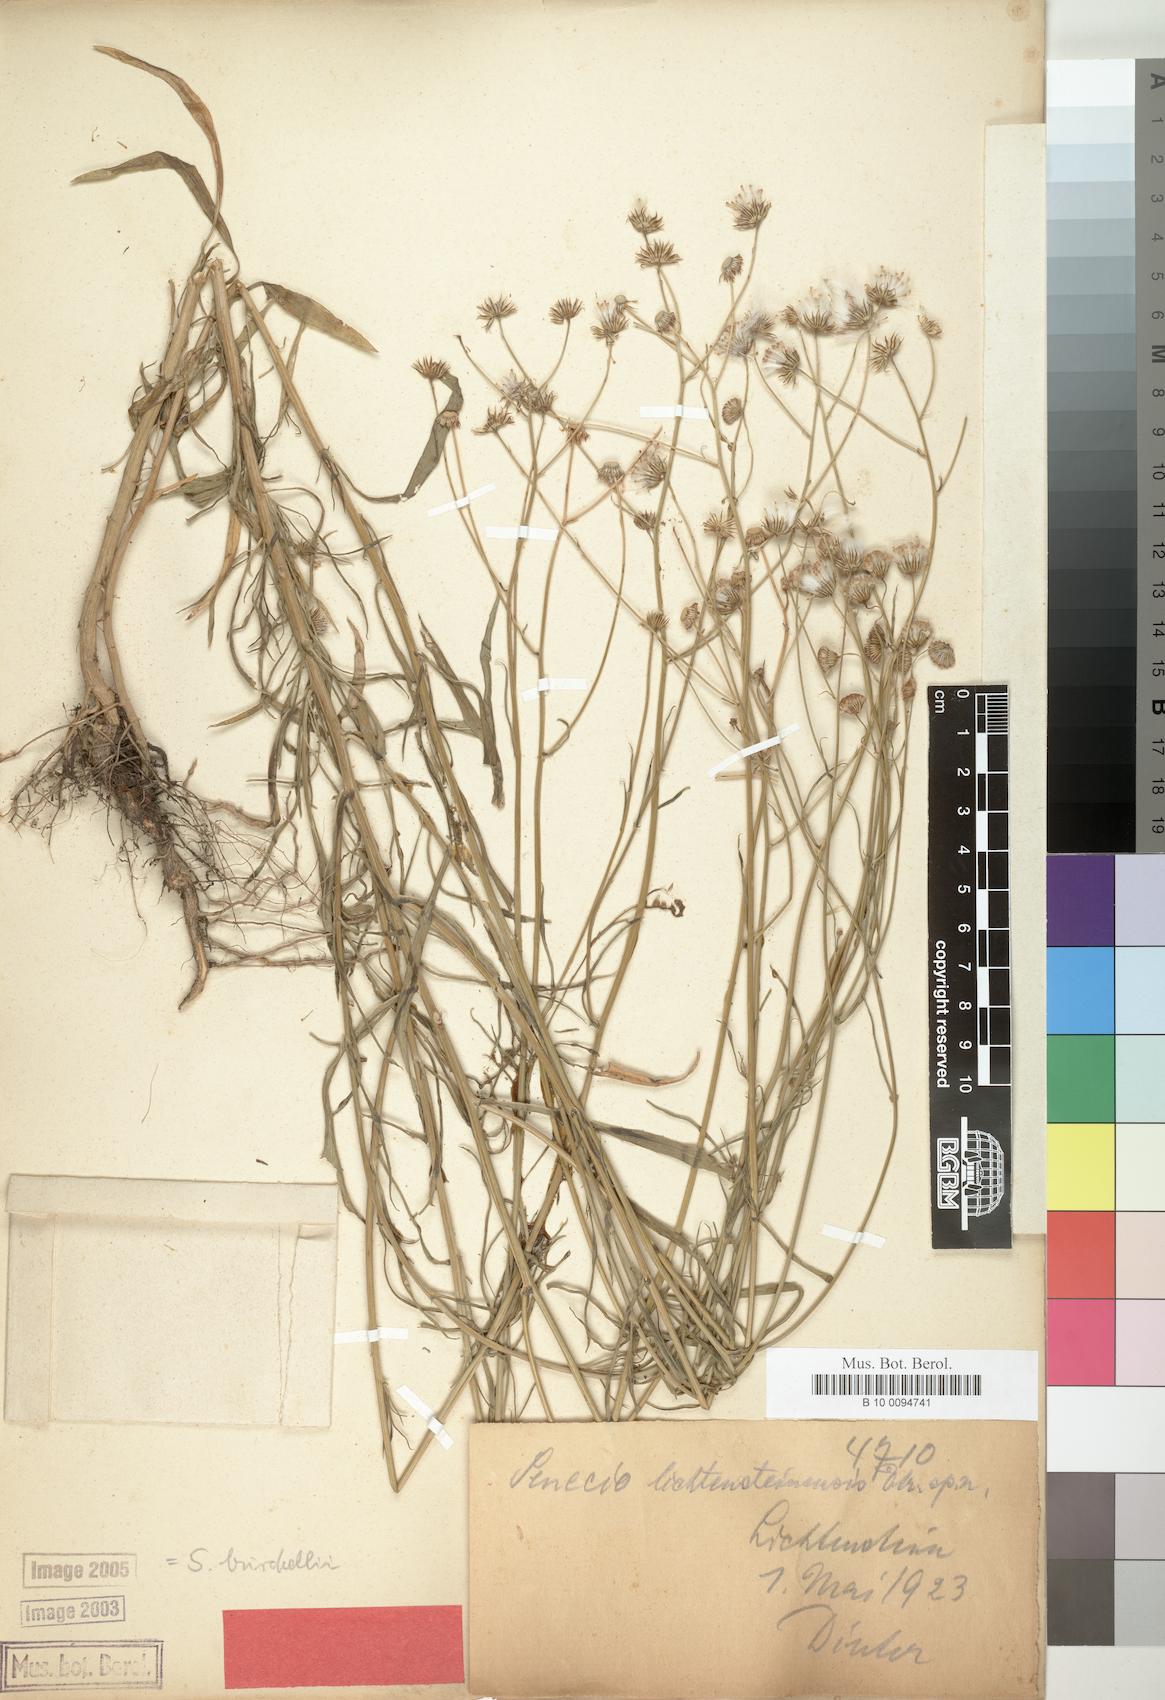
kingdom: Plantae
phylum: Tracheophyta
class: Magnoliopsida
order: Asterales
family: Asteraceae
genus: Senecio
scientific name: Senecio burchellii
